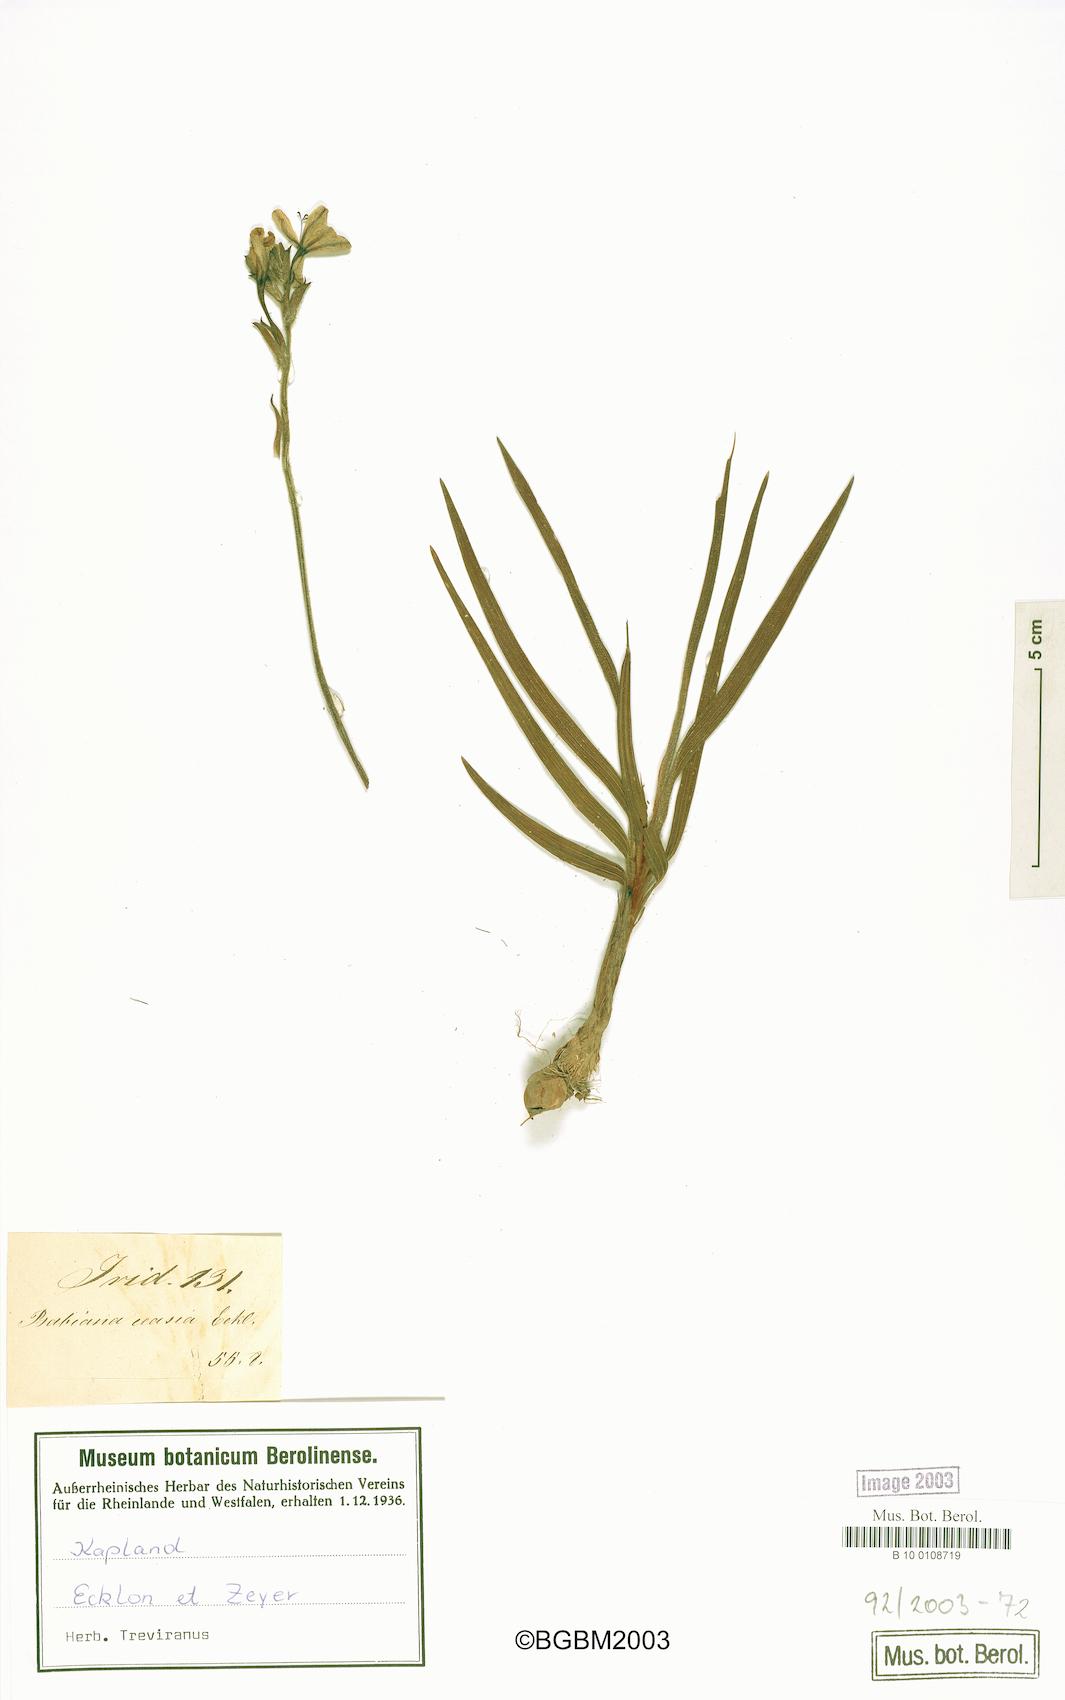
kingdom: Plantae
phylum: Tracheophyta
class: Liliopsida
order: Asparagales
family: Iridaceae
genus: Babiana
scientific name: Babiana nervosa
